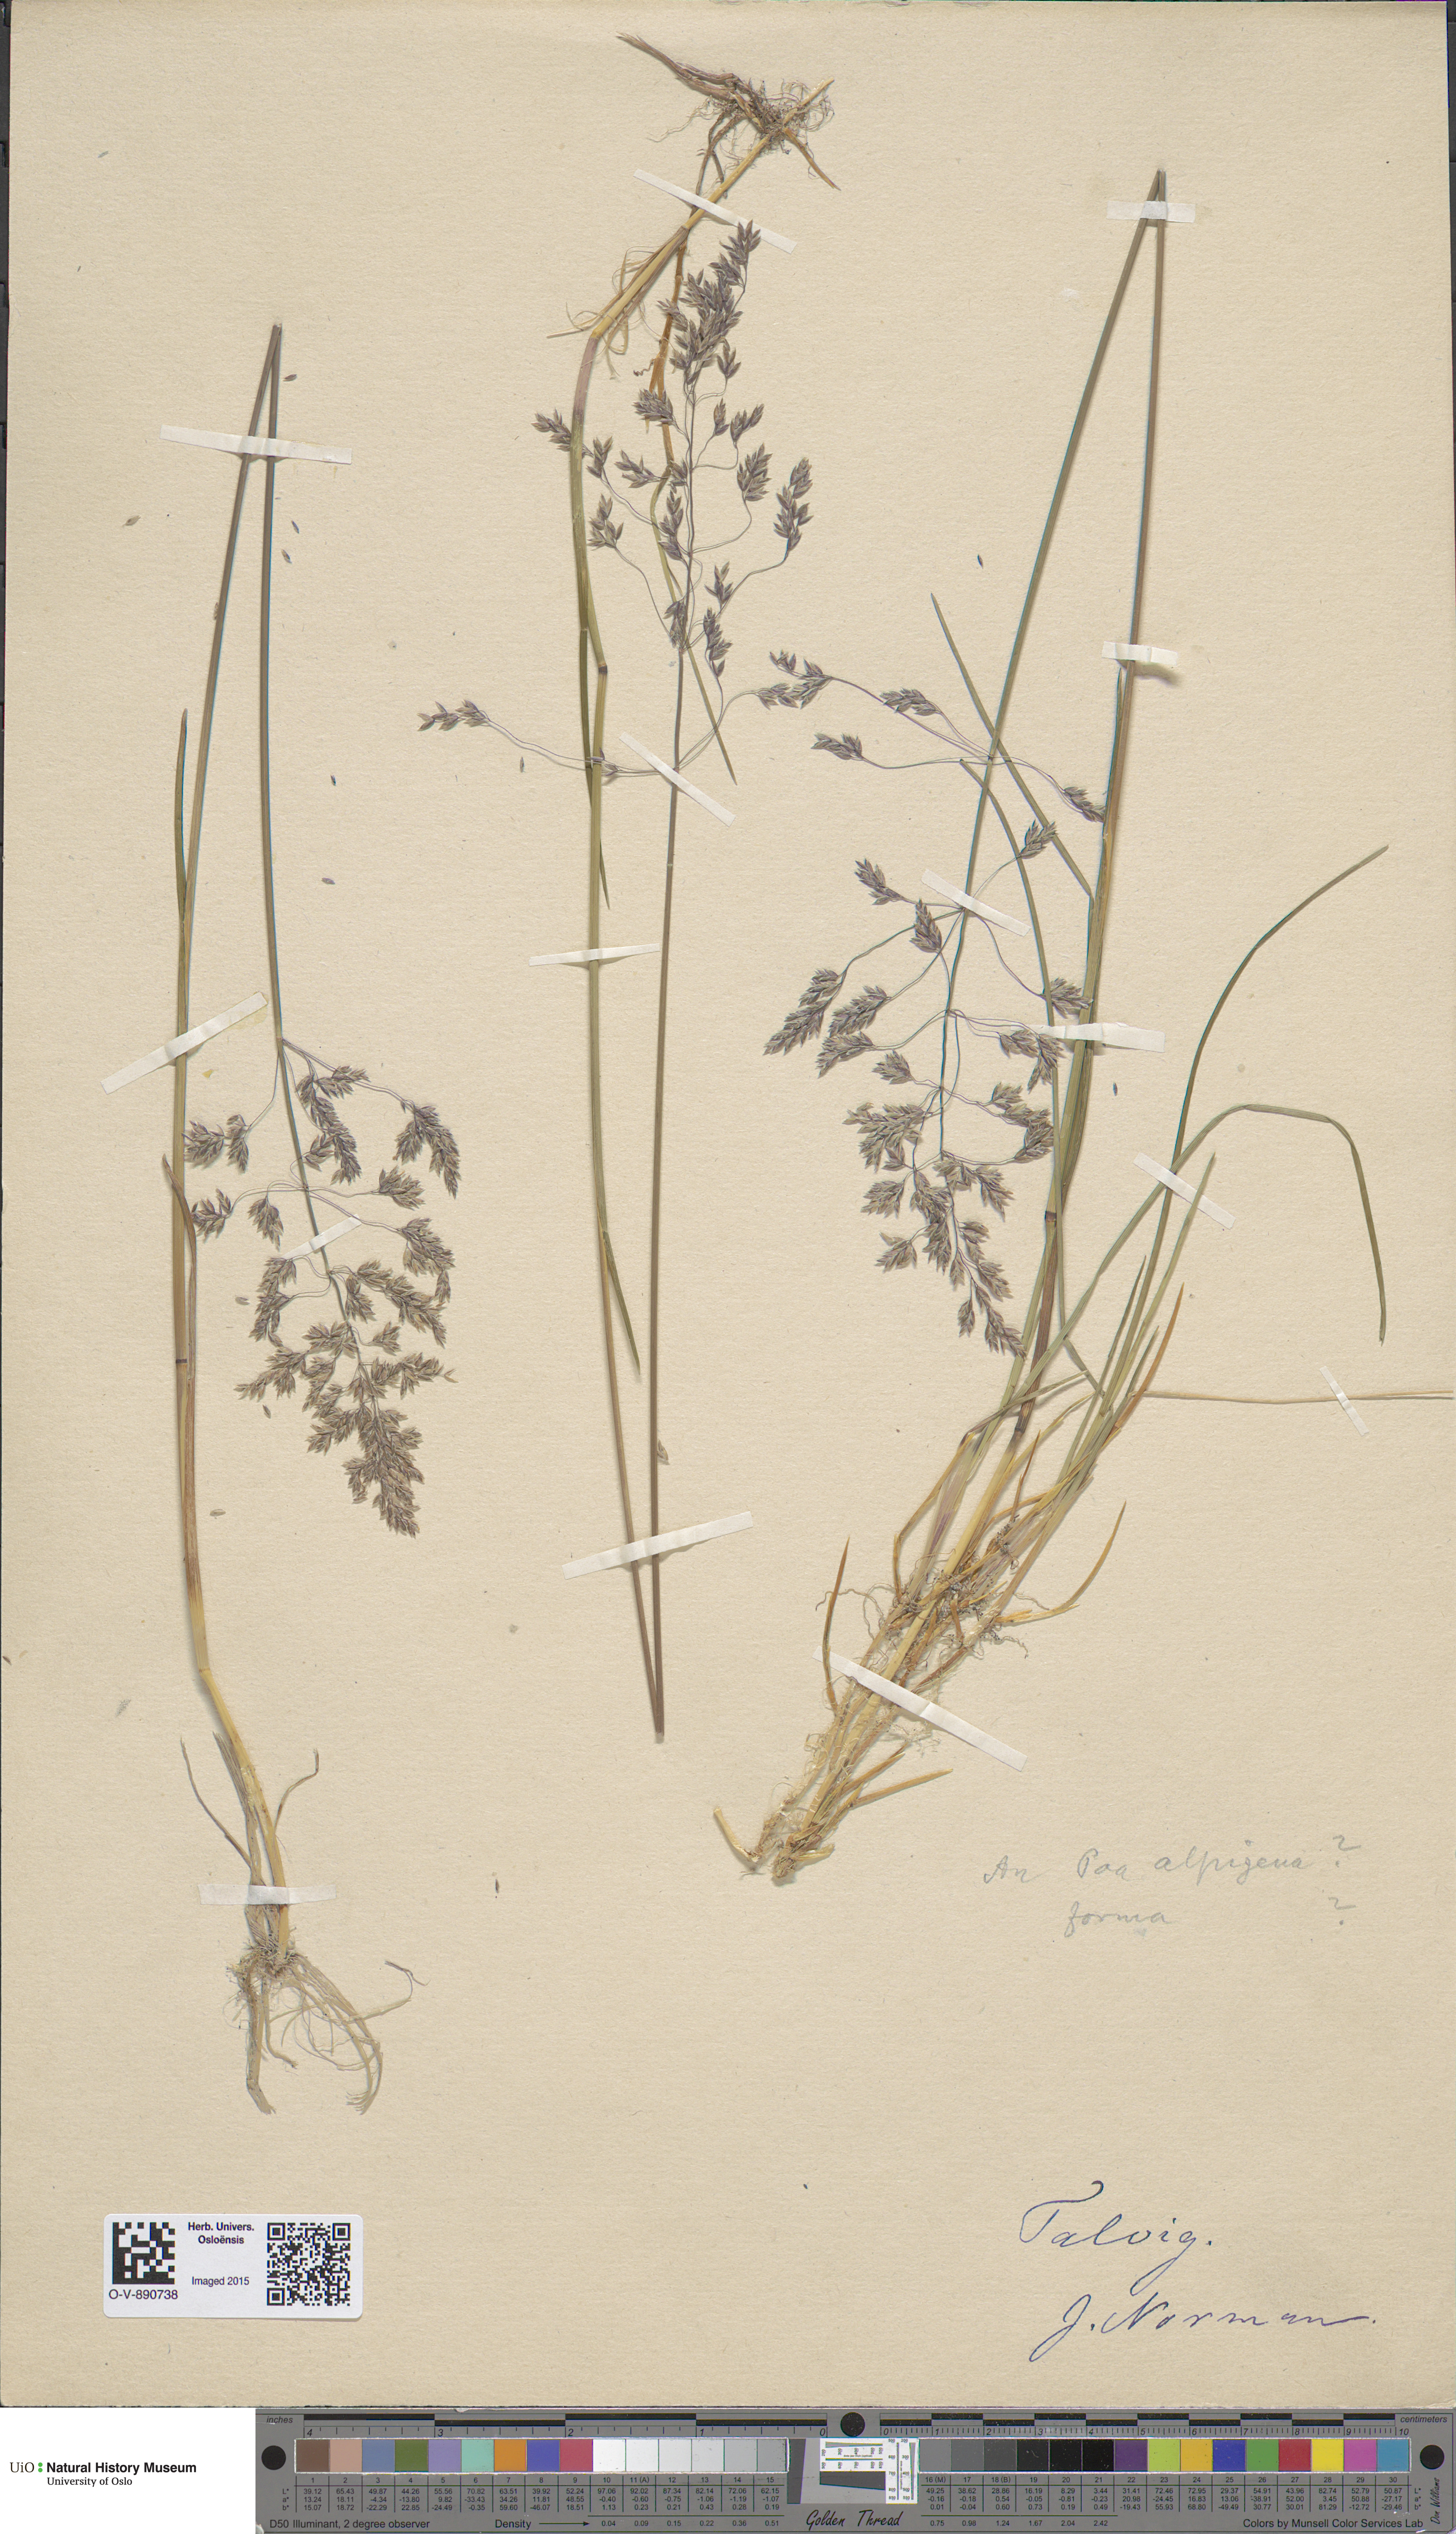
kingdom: Plantae
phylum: Tracheophyta
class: Liliopsida
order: Poales
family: Poaceae
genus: Poa
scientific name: Poa alpigena
